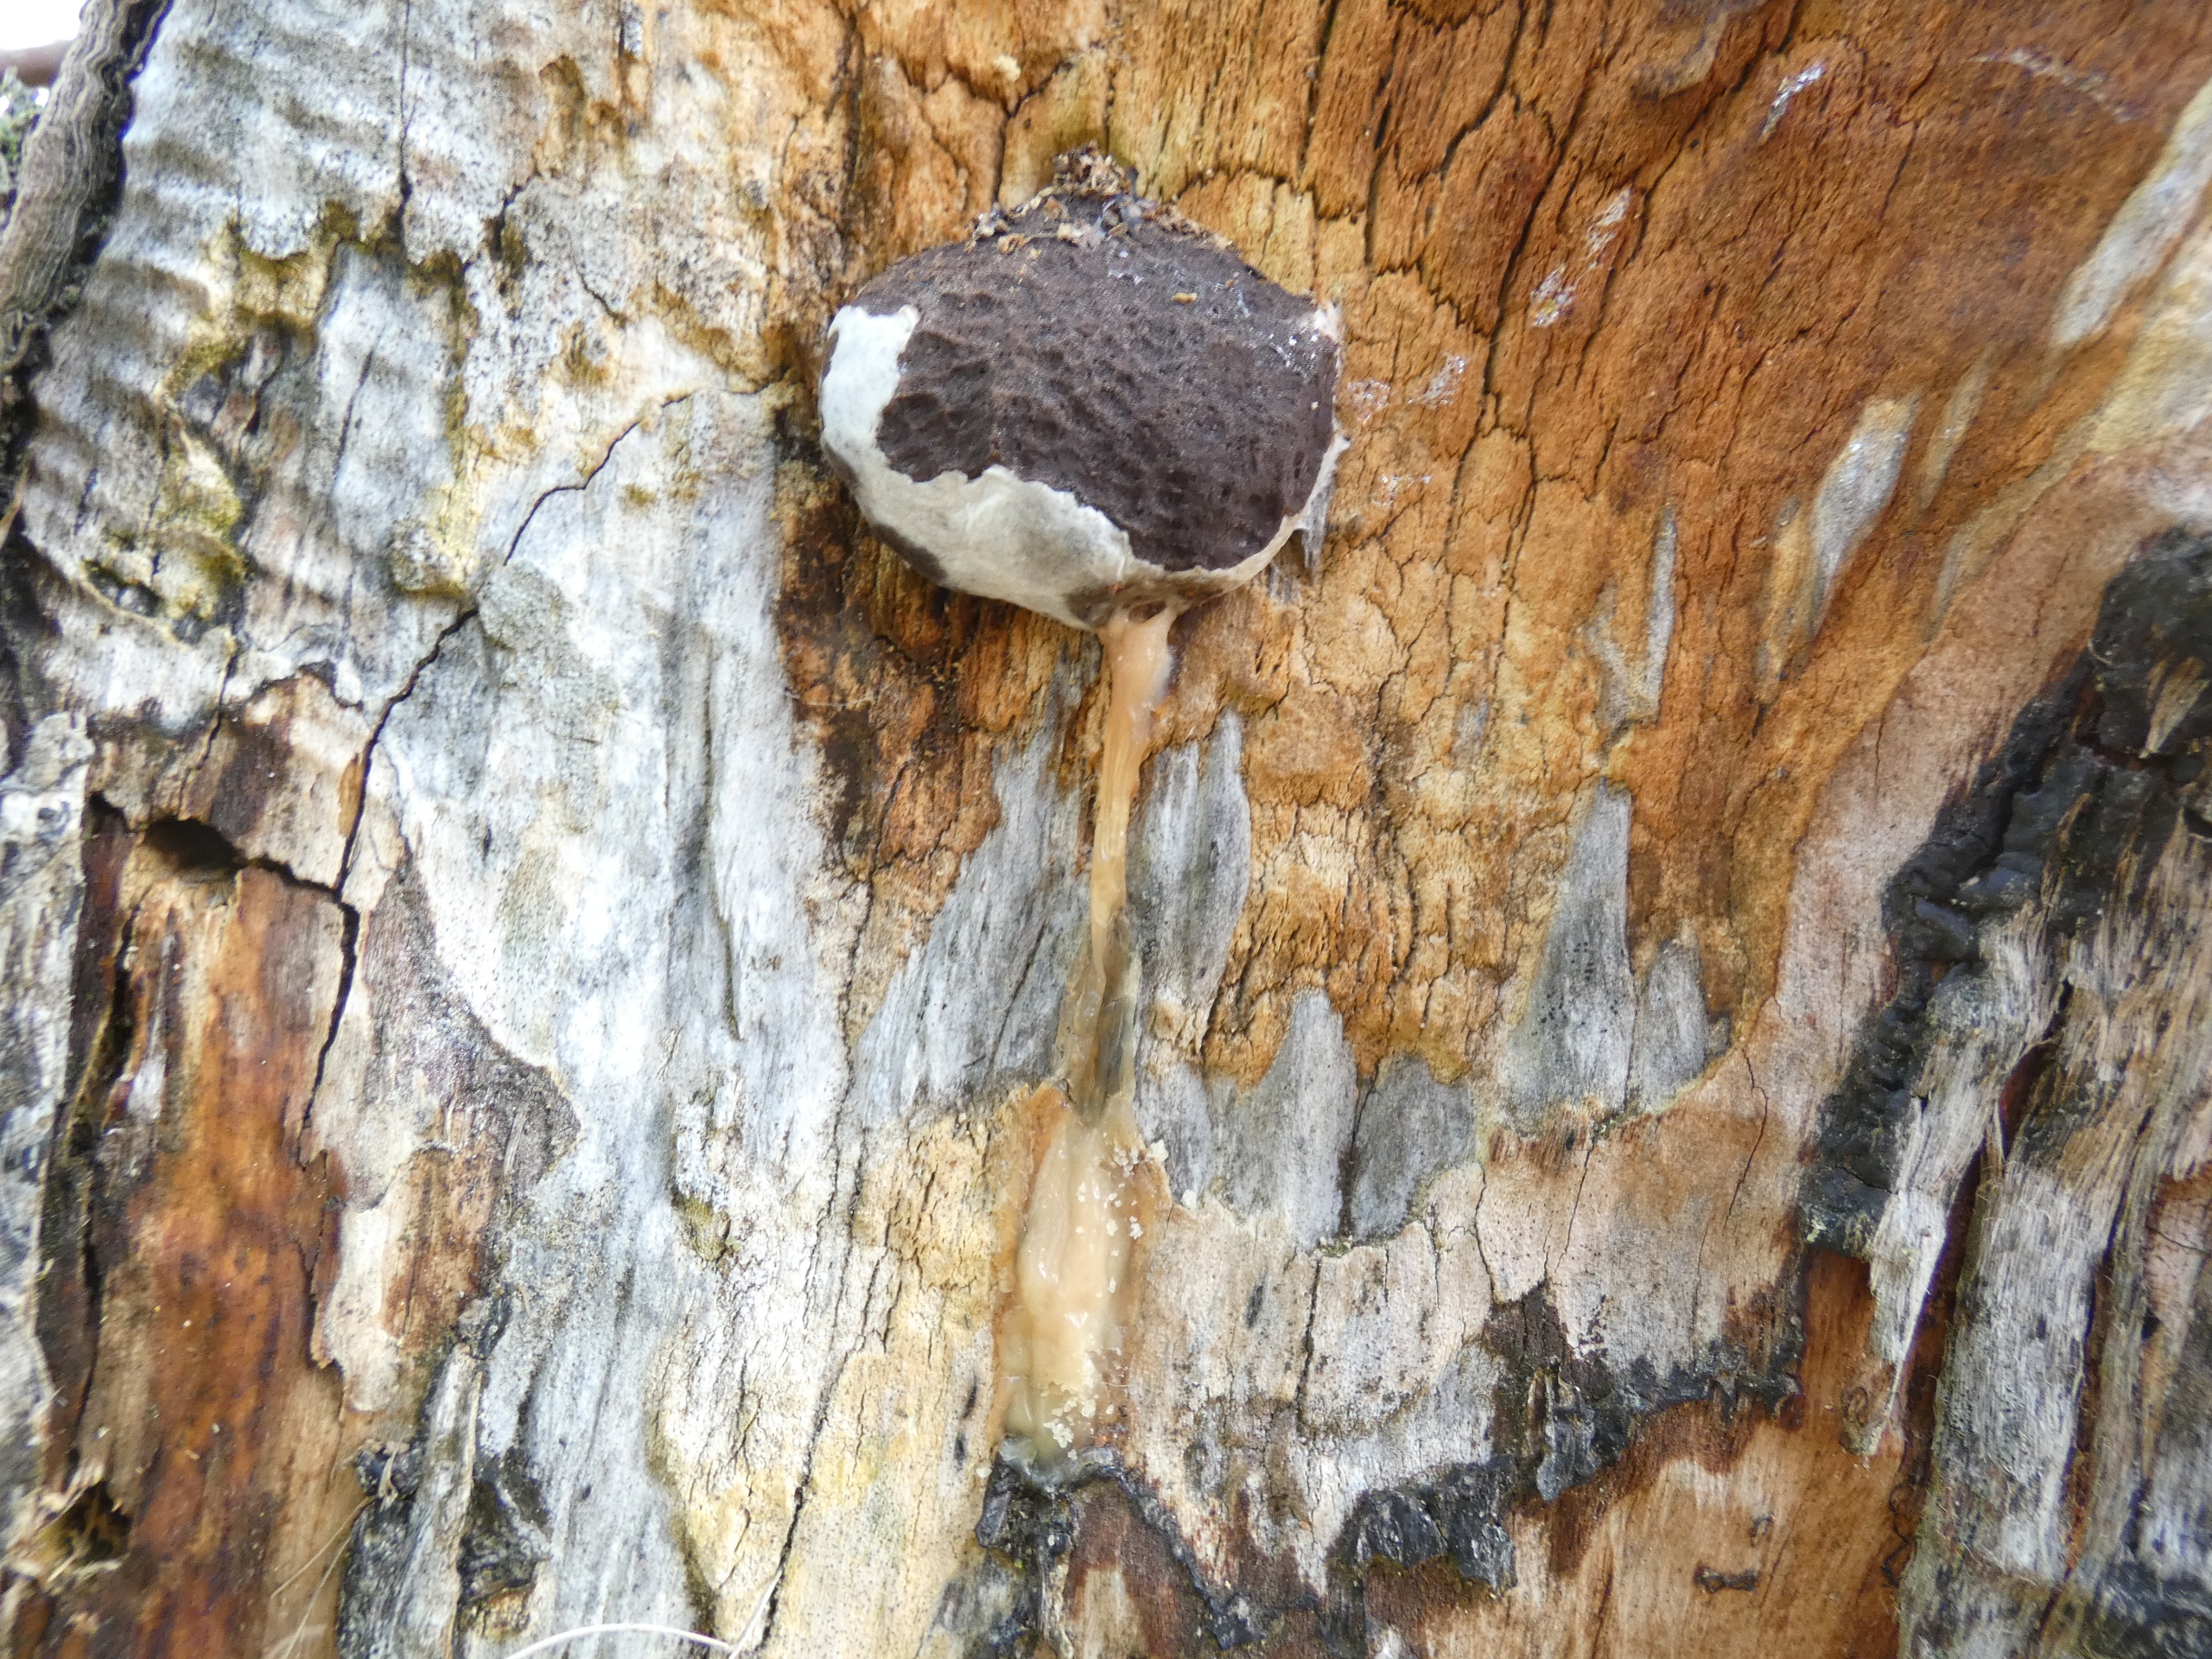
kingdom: Protozoa
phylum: Mycetozoa
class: Myxomycetes
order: Cribrariales
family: Tubiferaceae
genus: Reticularia
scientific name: Reticularia lycoperdon
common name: Skinnende støvpude
